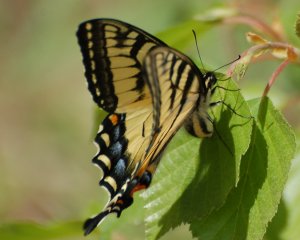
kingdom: Animalia
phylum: Arthropoda
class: Insecta
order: Lepidoptera
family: Papilionidae
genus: Pterourus
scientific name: Pterourus canadensis
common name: Canadian Tiger Swallowtail
